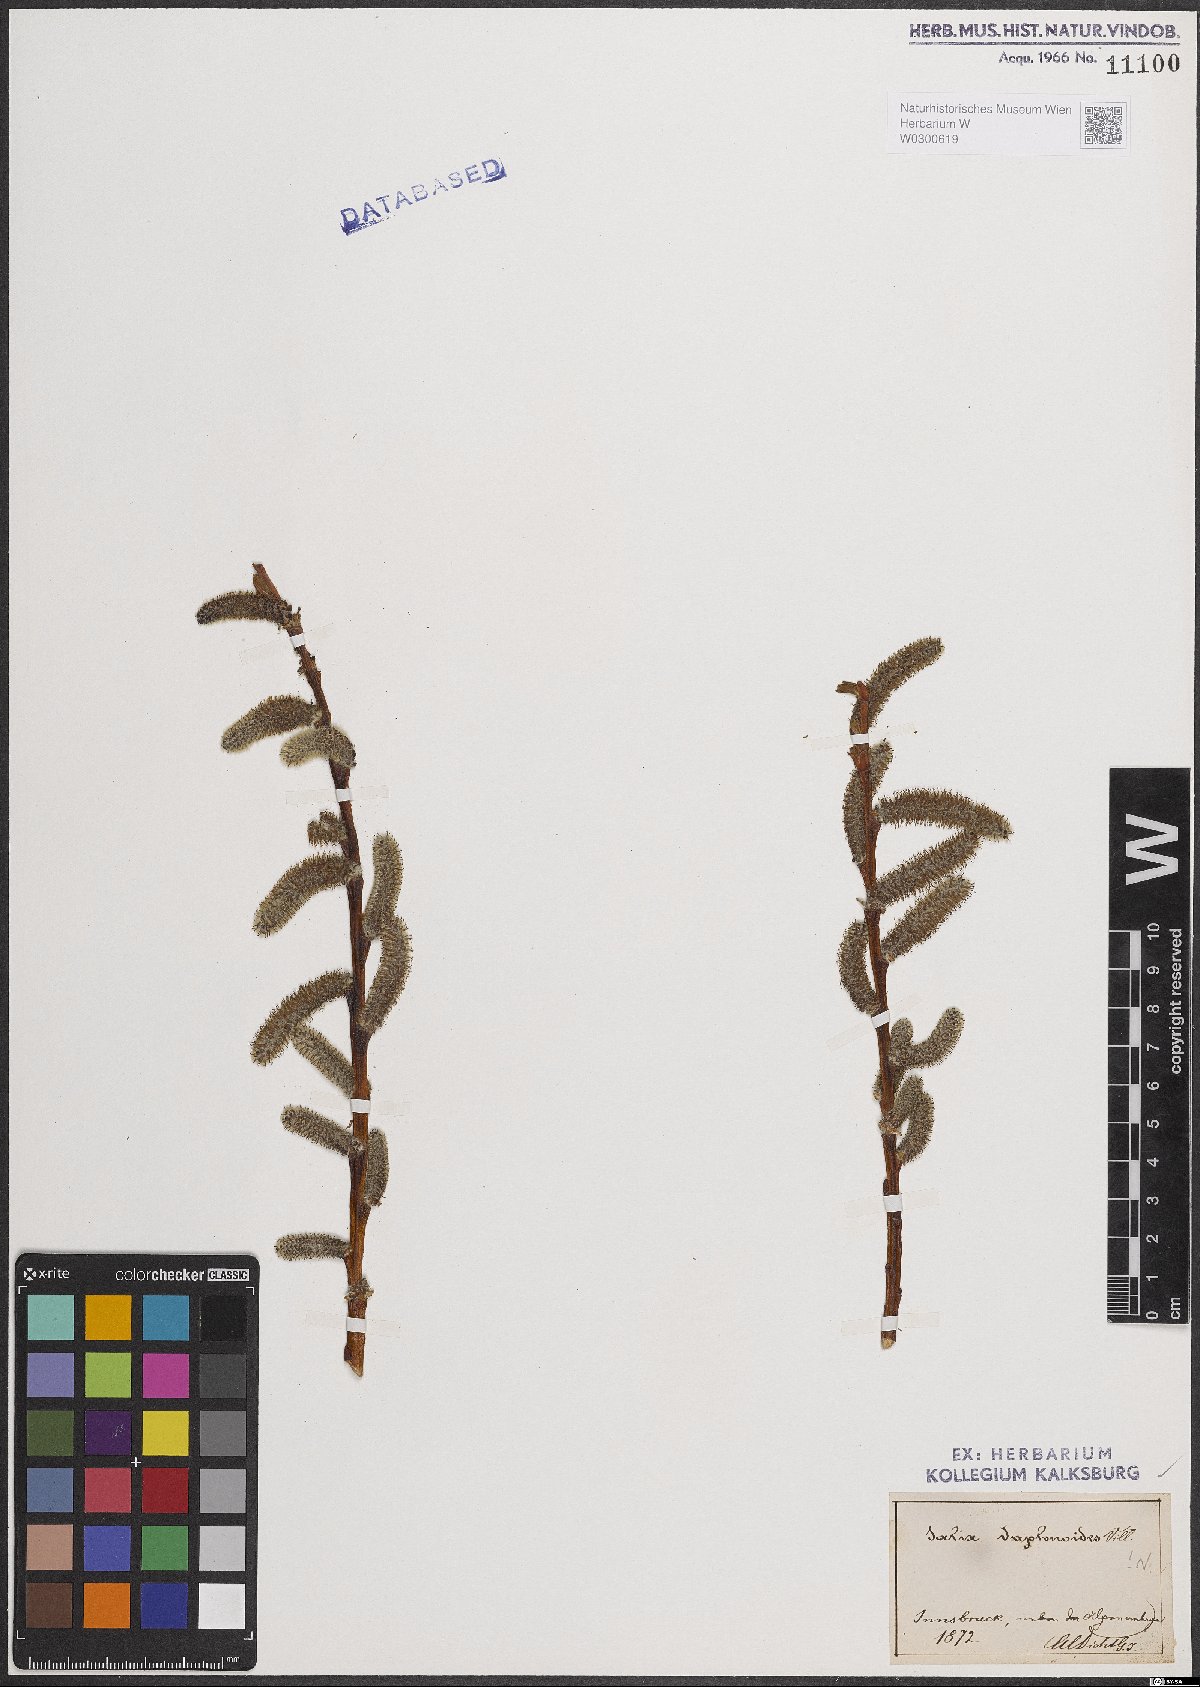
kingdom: Plantae
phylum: Tracheophyta
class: Magnoliopsida
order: Malpighiales
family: Salicaceae
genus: Salix
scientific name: Salix daphnoides
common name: European violet-willow
